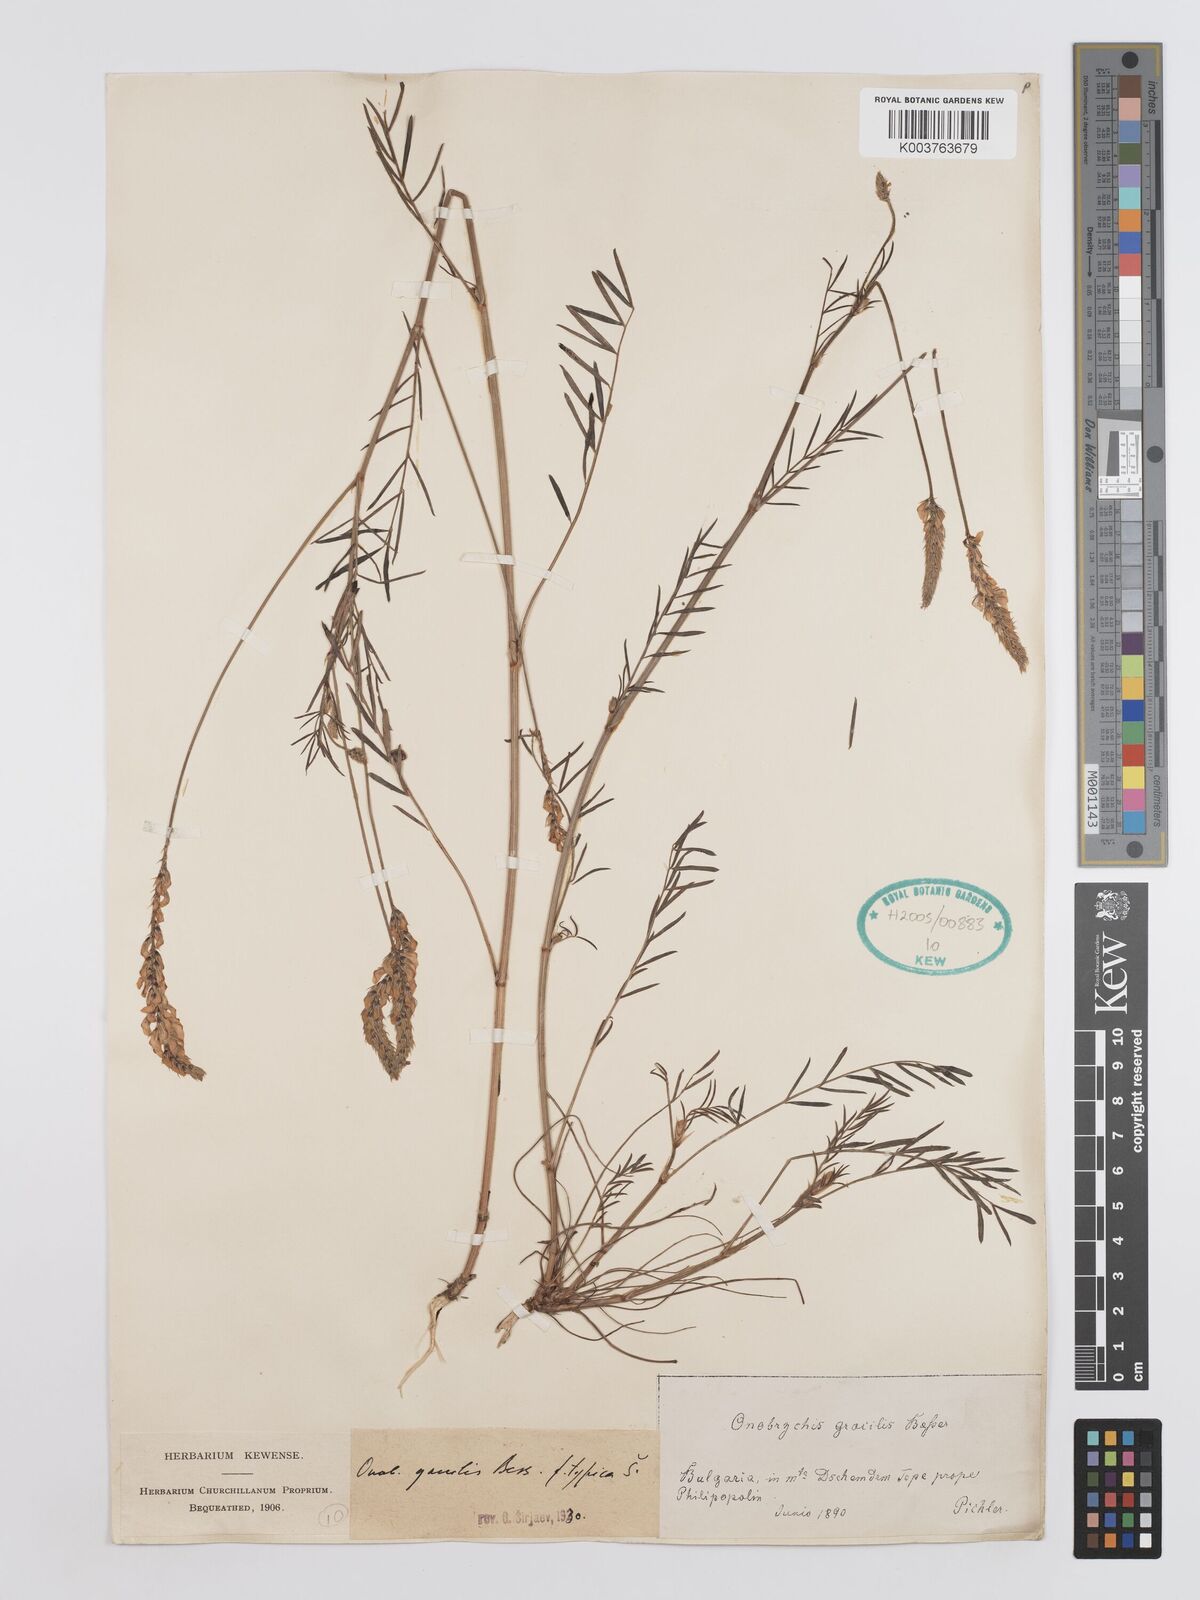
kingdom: Plantae
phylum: Tracheophyta
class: Magnoliopsida
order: Fabales
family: Fabaceae
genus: Onobrychis
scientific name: Onobrychis gracilis
